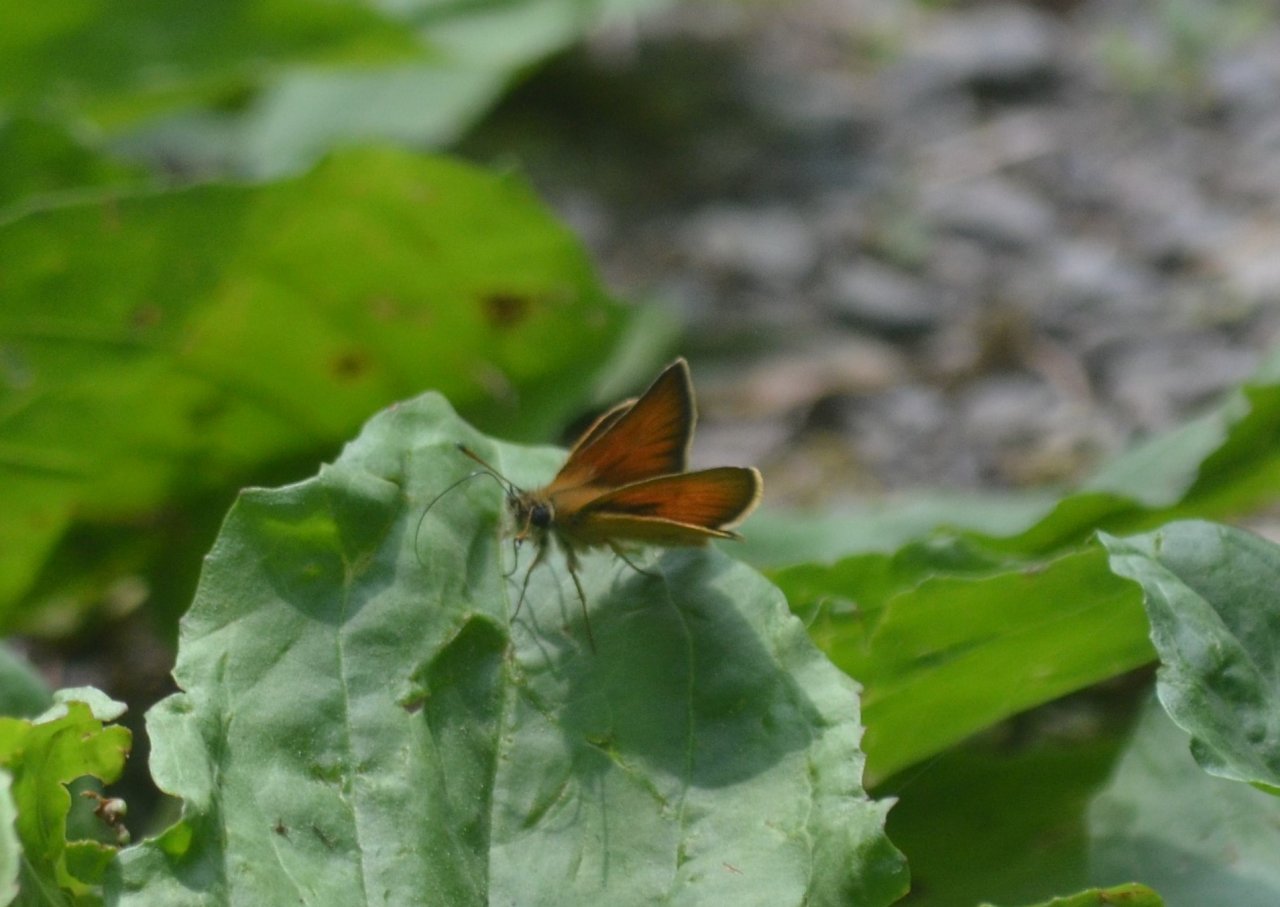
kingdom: Animalia
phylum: Arthropoda
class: Insecta
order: Lepidoptera
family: Hesperiidae
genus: Thymelicus
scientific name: Thymelicus lineola
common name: European Skipper
